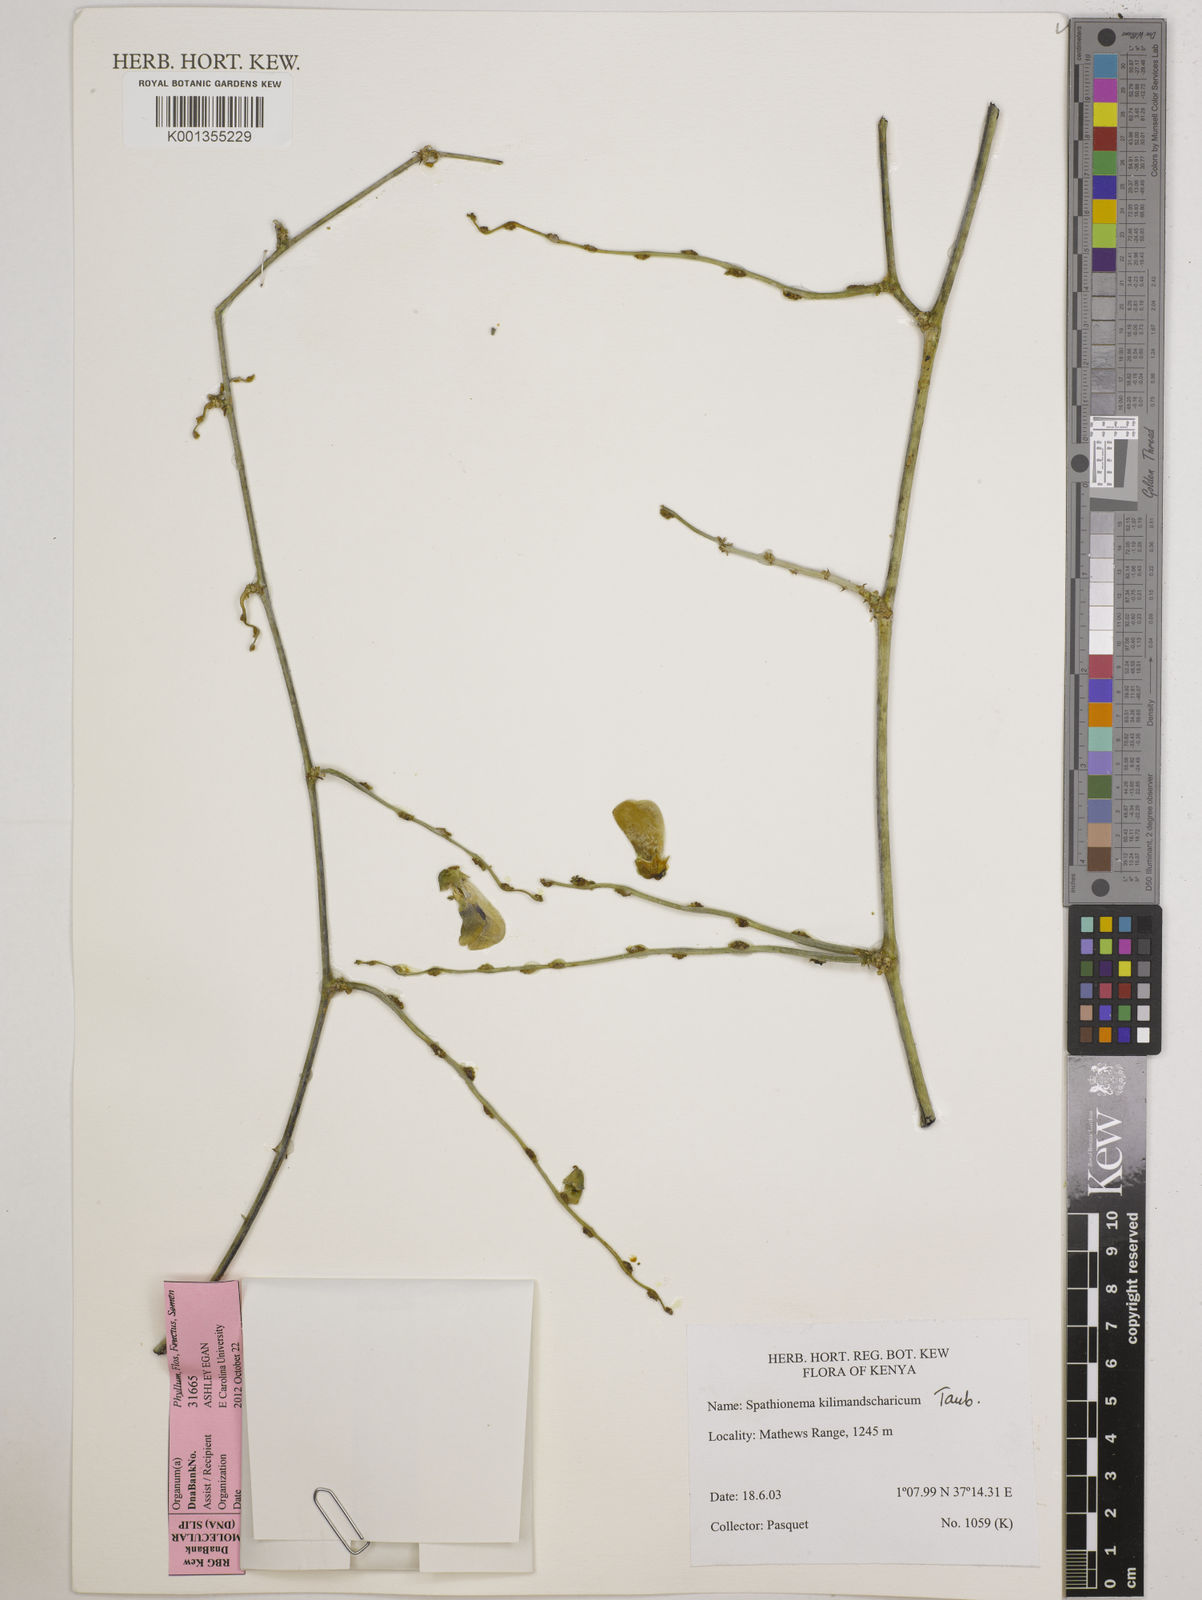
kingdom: Plantae
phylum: Tracheophyta
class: Magnoliopsida
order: Fabales
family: Fabaceae
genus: Spathionema
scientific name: Spathionema kilimandscharicum
